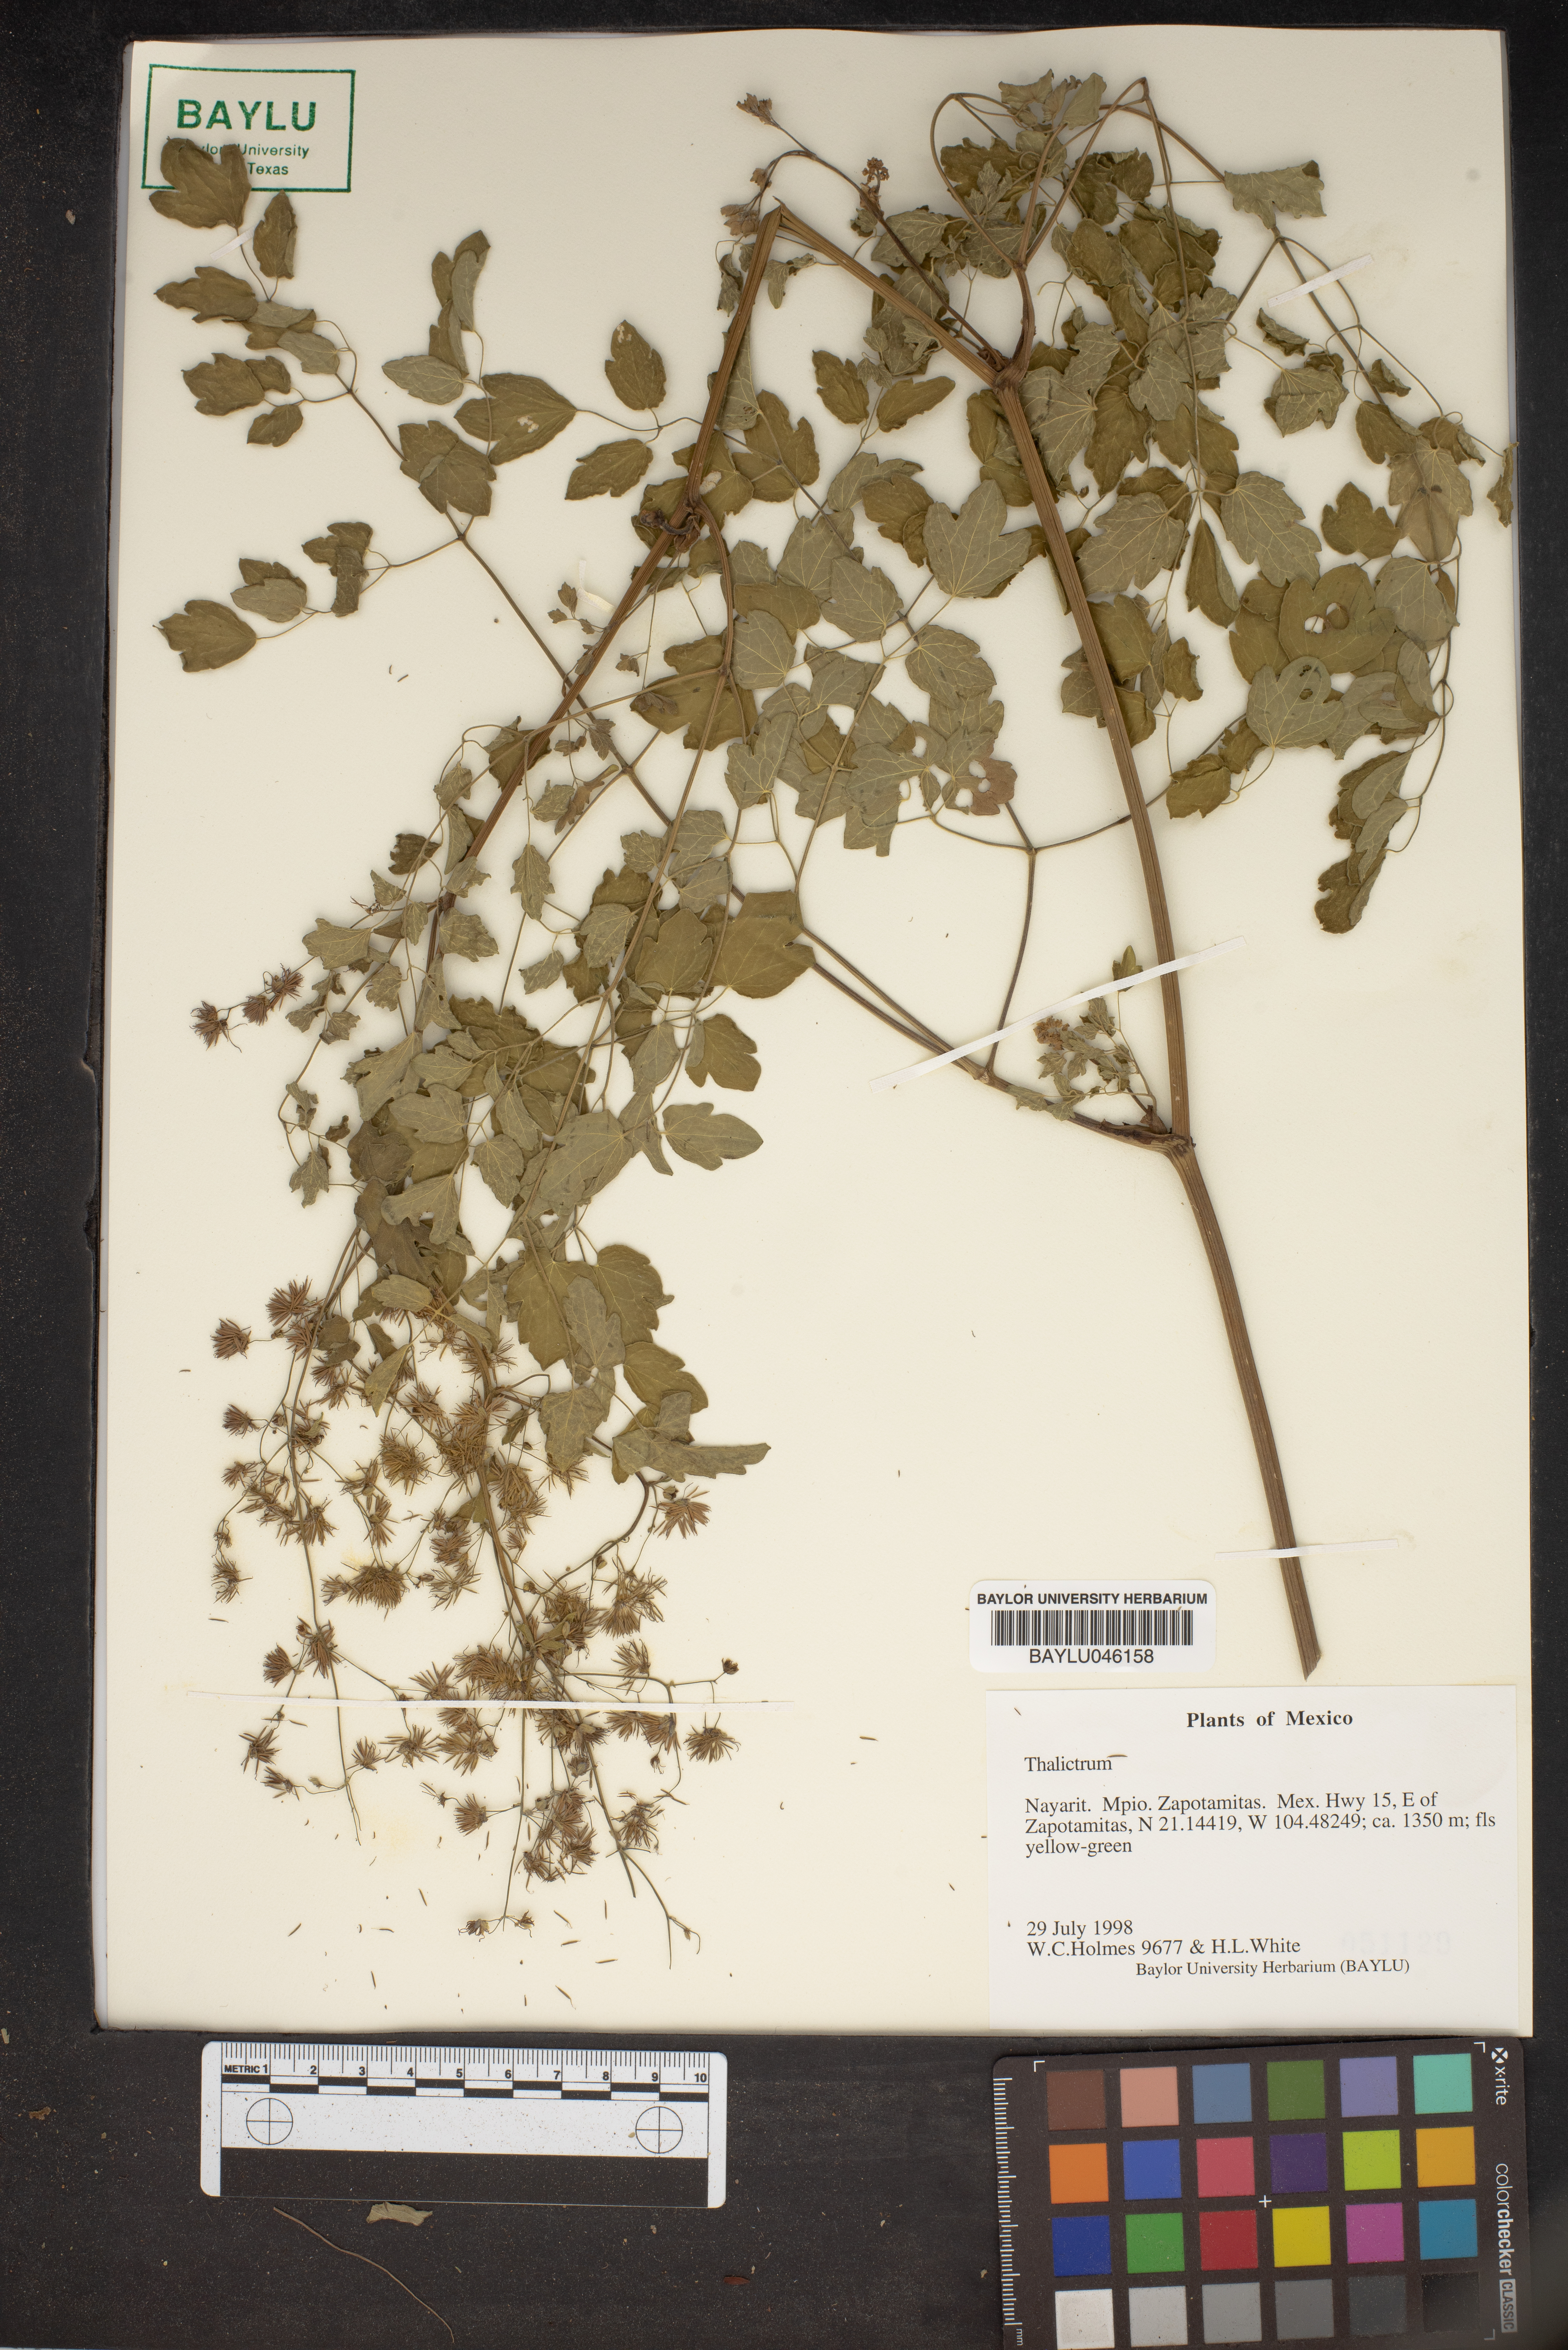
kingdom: Plantae
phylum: Tracheophyta
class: Magnoliopsida
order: Ranunculales
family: Ranunculaceae
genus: Thalictrum
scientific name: Thalictrum
